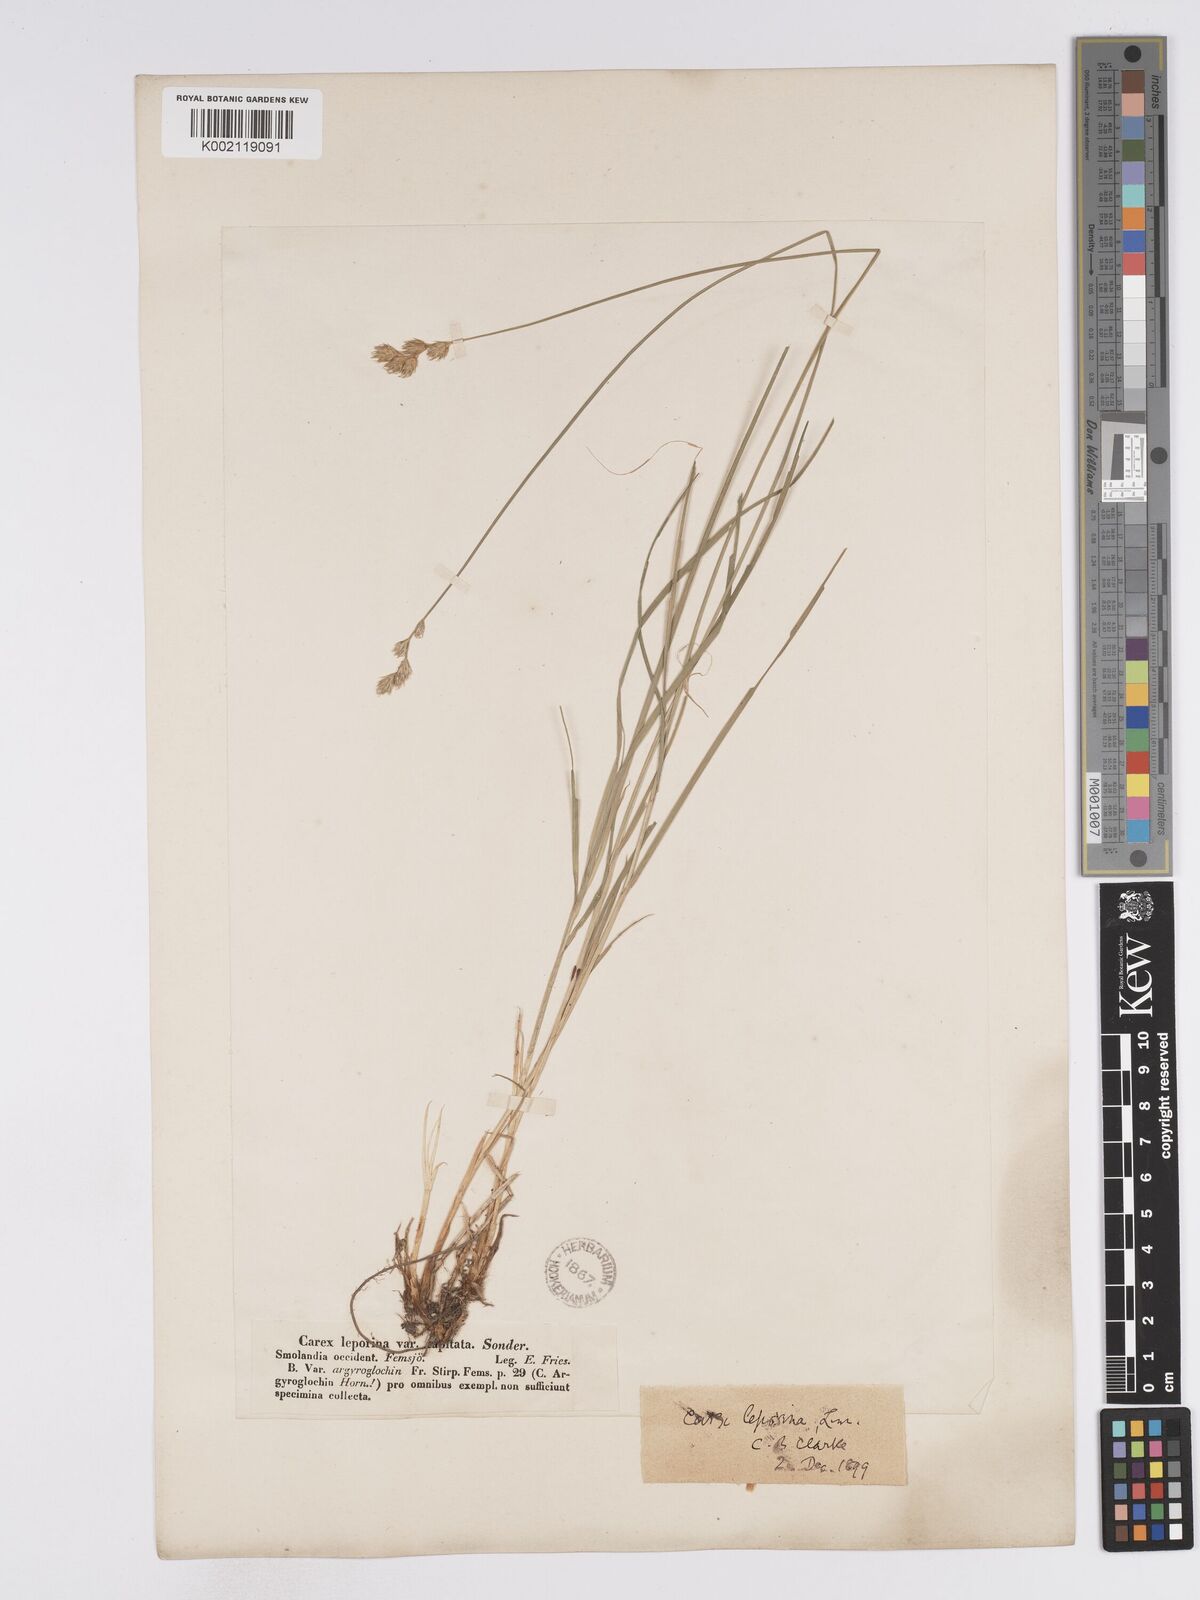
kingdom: Plantae
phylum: Tracheophyta
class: Liliopsida
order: Poales
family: Cyperaceae
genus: Carex
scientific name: Carex leporina
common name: Oval sedge
